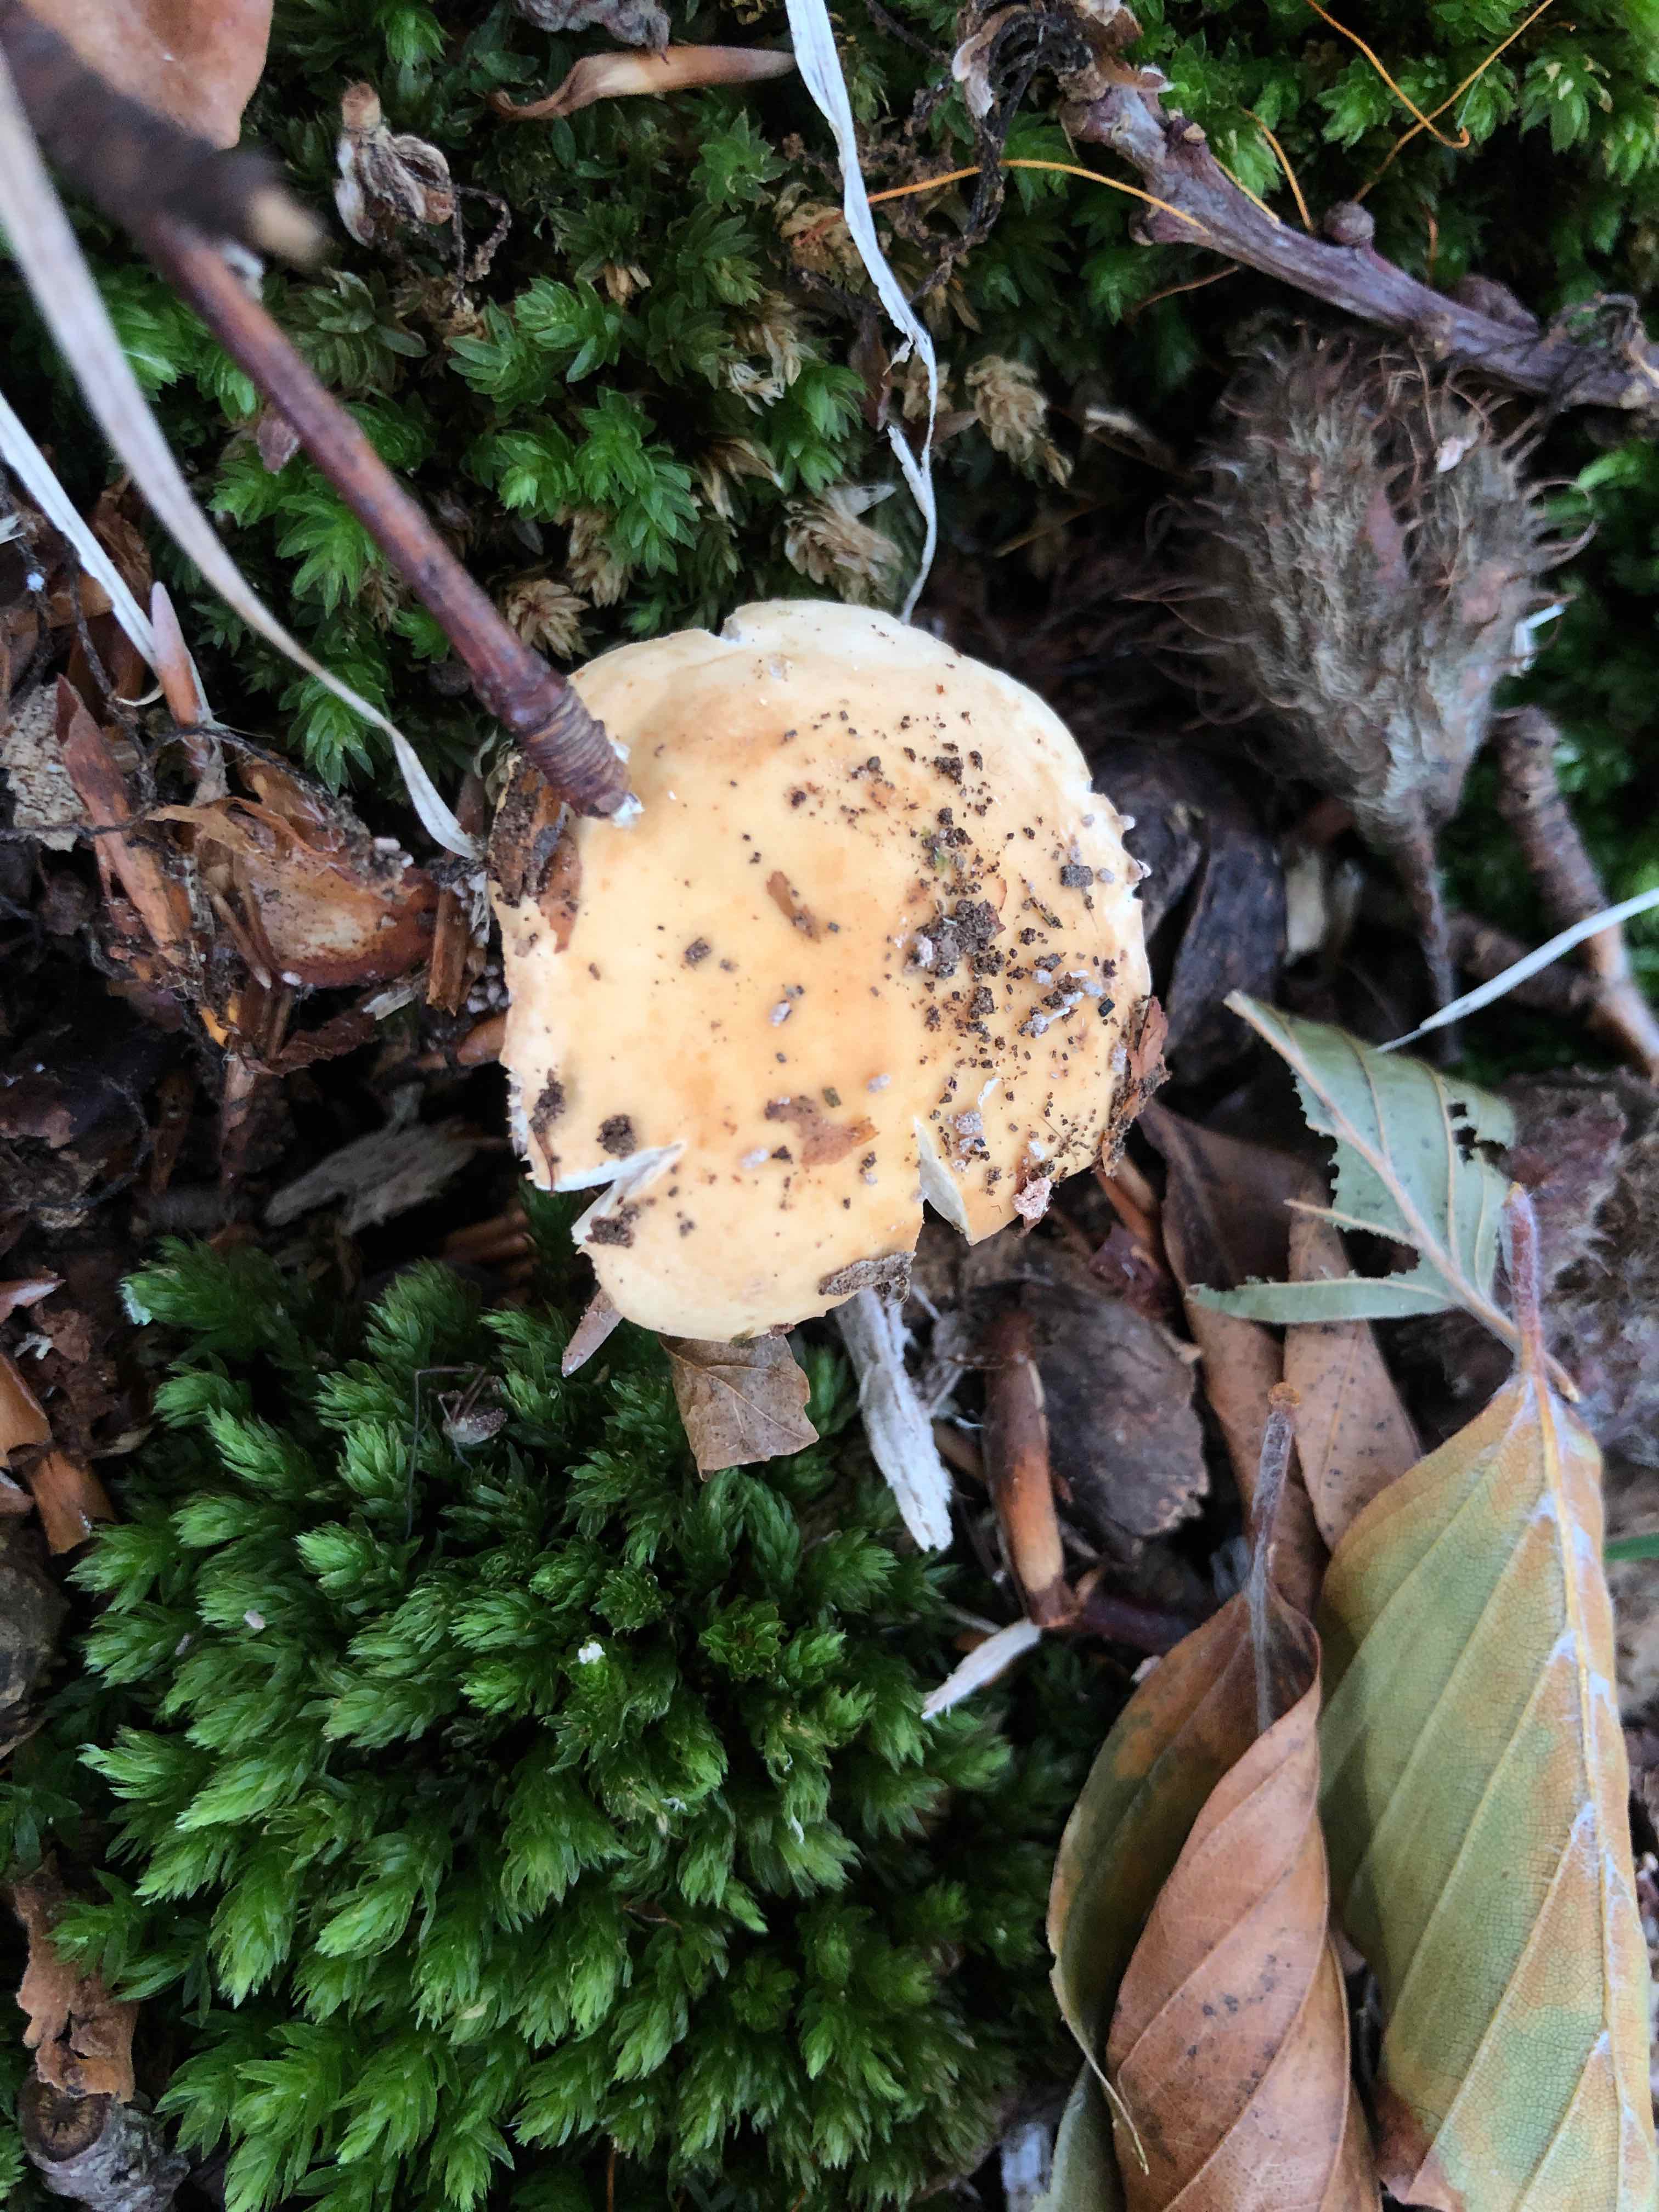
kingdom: Fungi
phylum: Basidiomycota
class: Agaricomycetes
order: Russulales
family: Russulaceae
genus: Russula
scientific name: Russula fellea
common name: galde-skørhat
